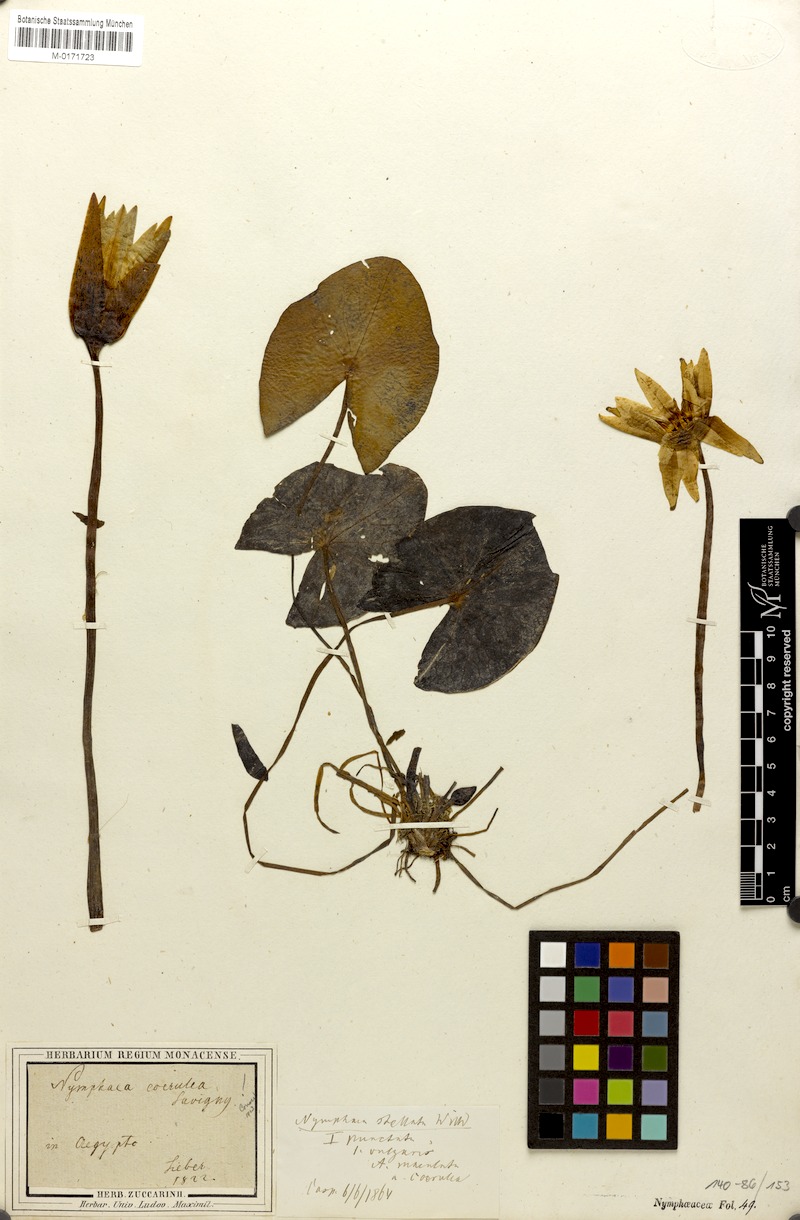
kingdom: Plantae
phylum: Tracheophyta
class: Magnoliopsida
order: Nymphaeales
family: Nymphaeaceae
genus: Nymphaea
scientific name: Nymphaea
